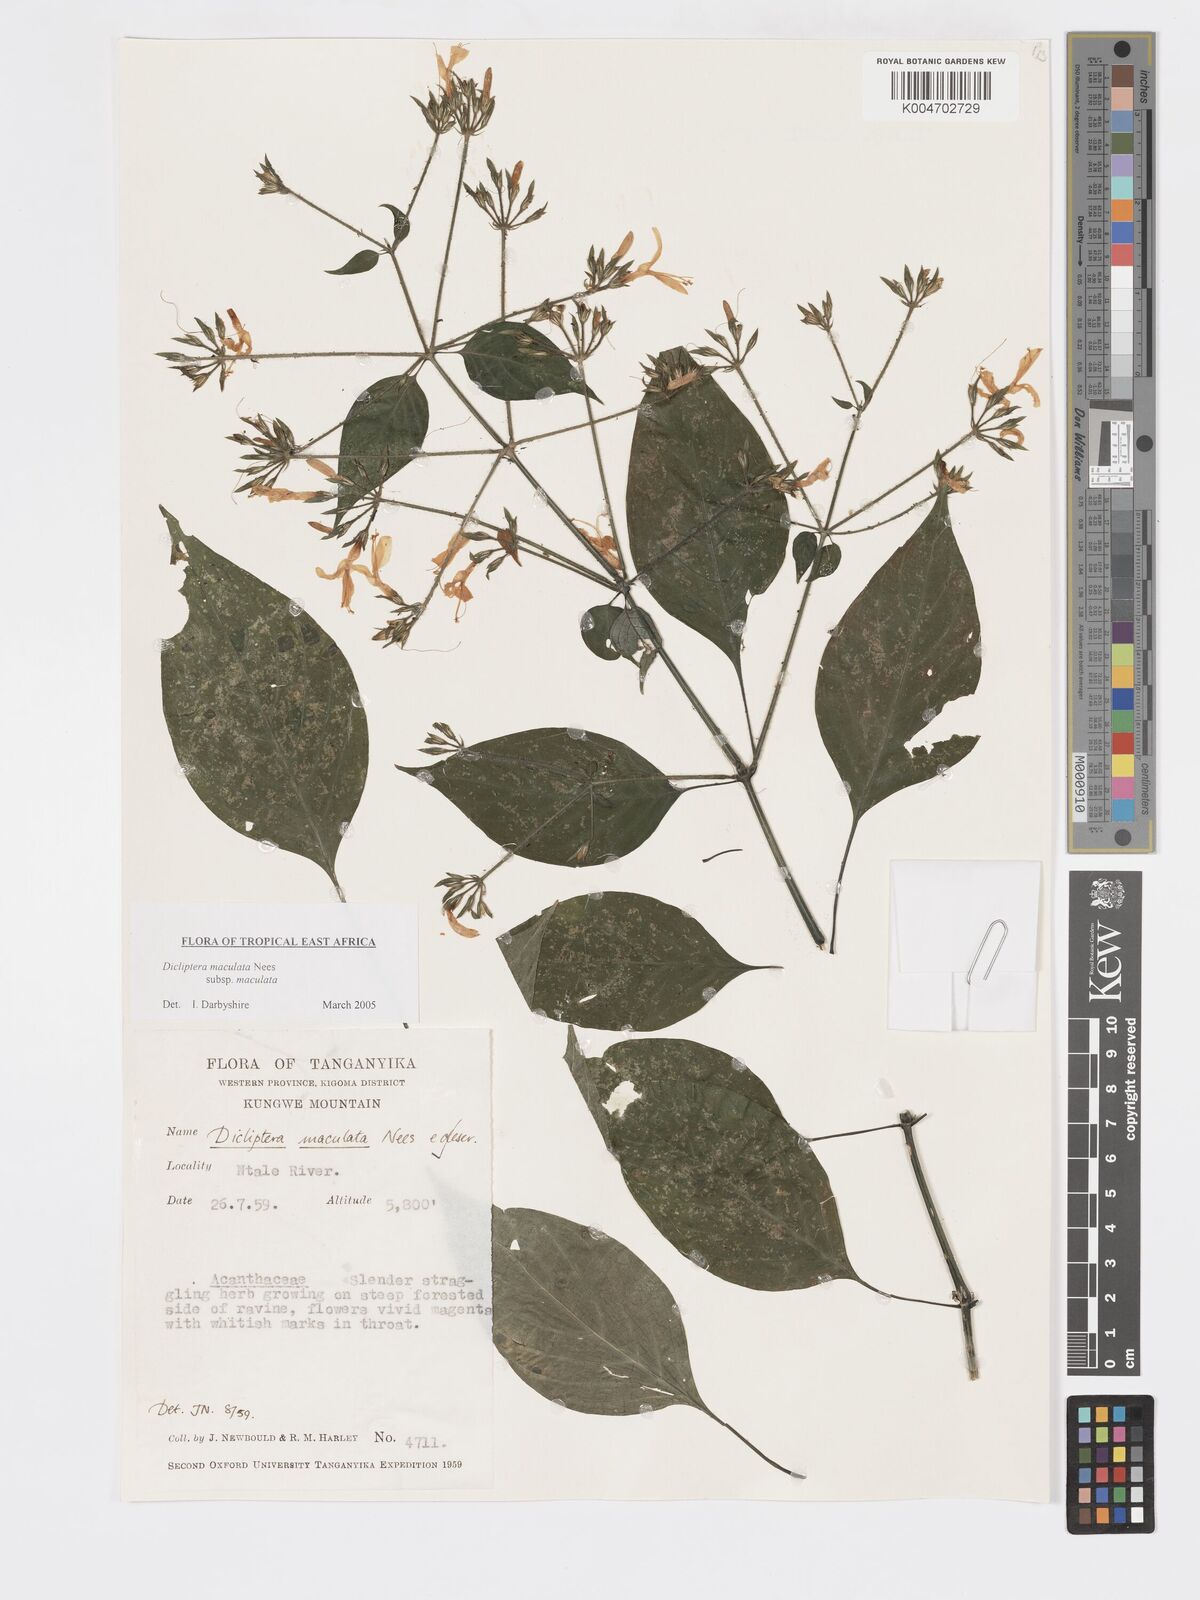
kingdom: Plantae
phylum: Tracheophyta
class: Magnoliopsida
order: Lamiales
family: Acanthaceae
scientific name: Acanthaceae
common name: Acanthaceae
